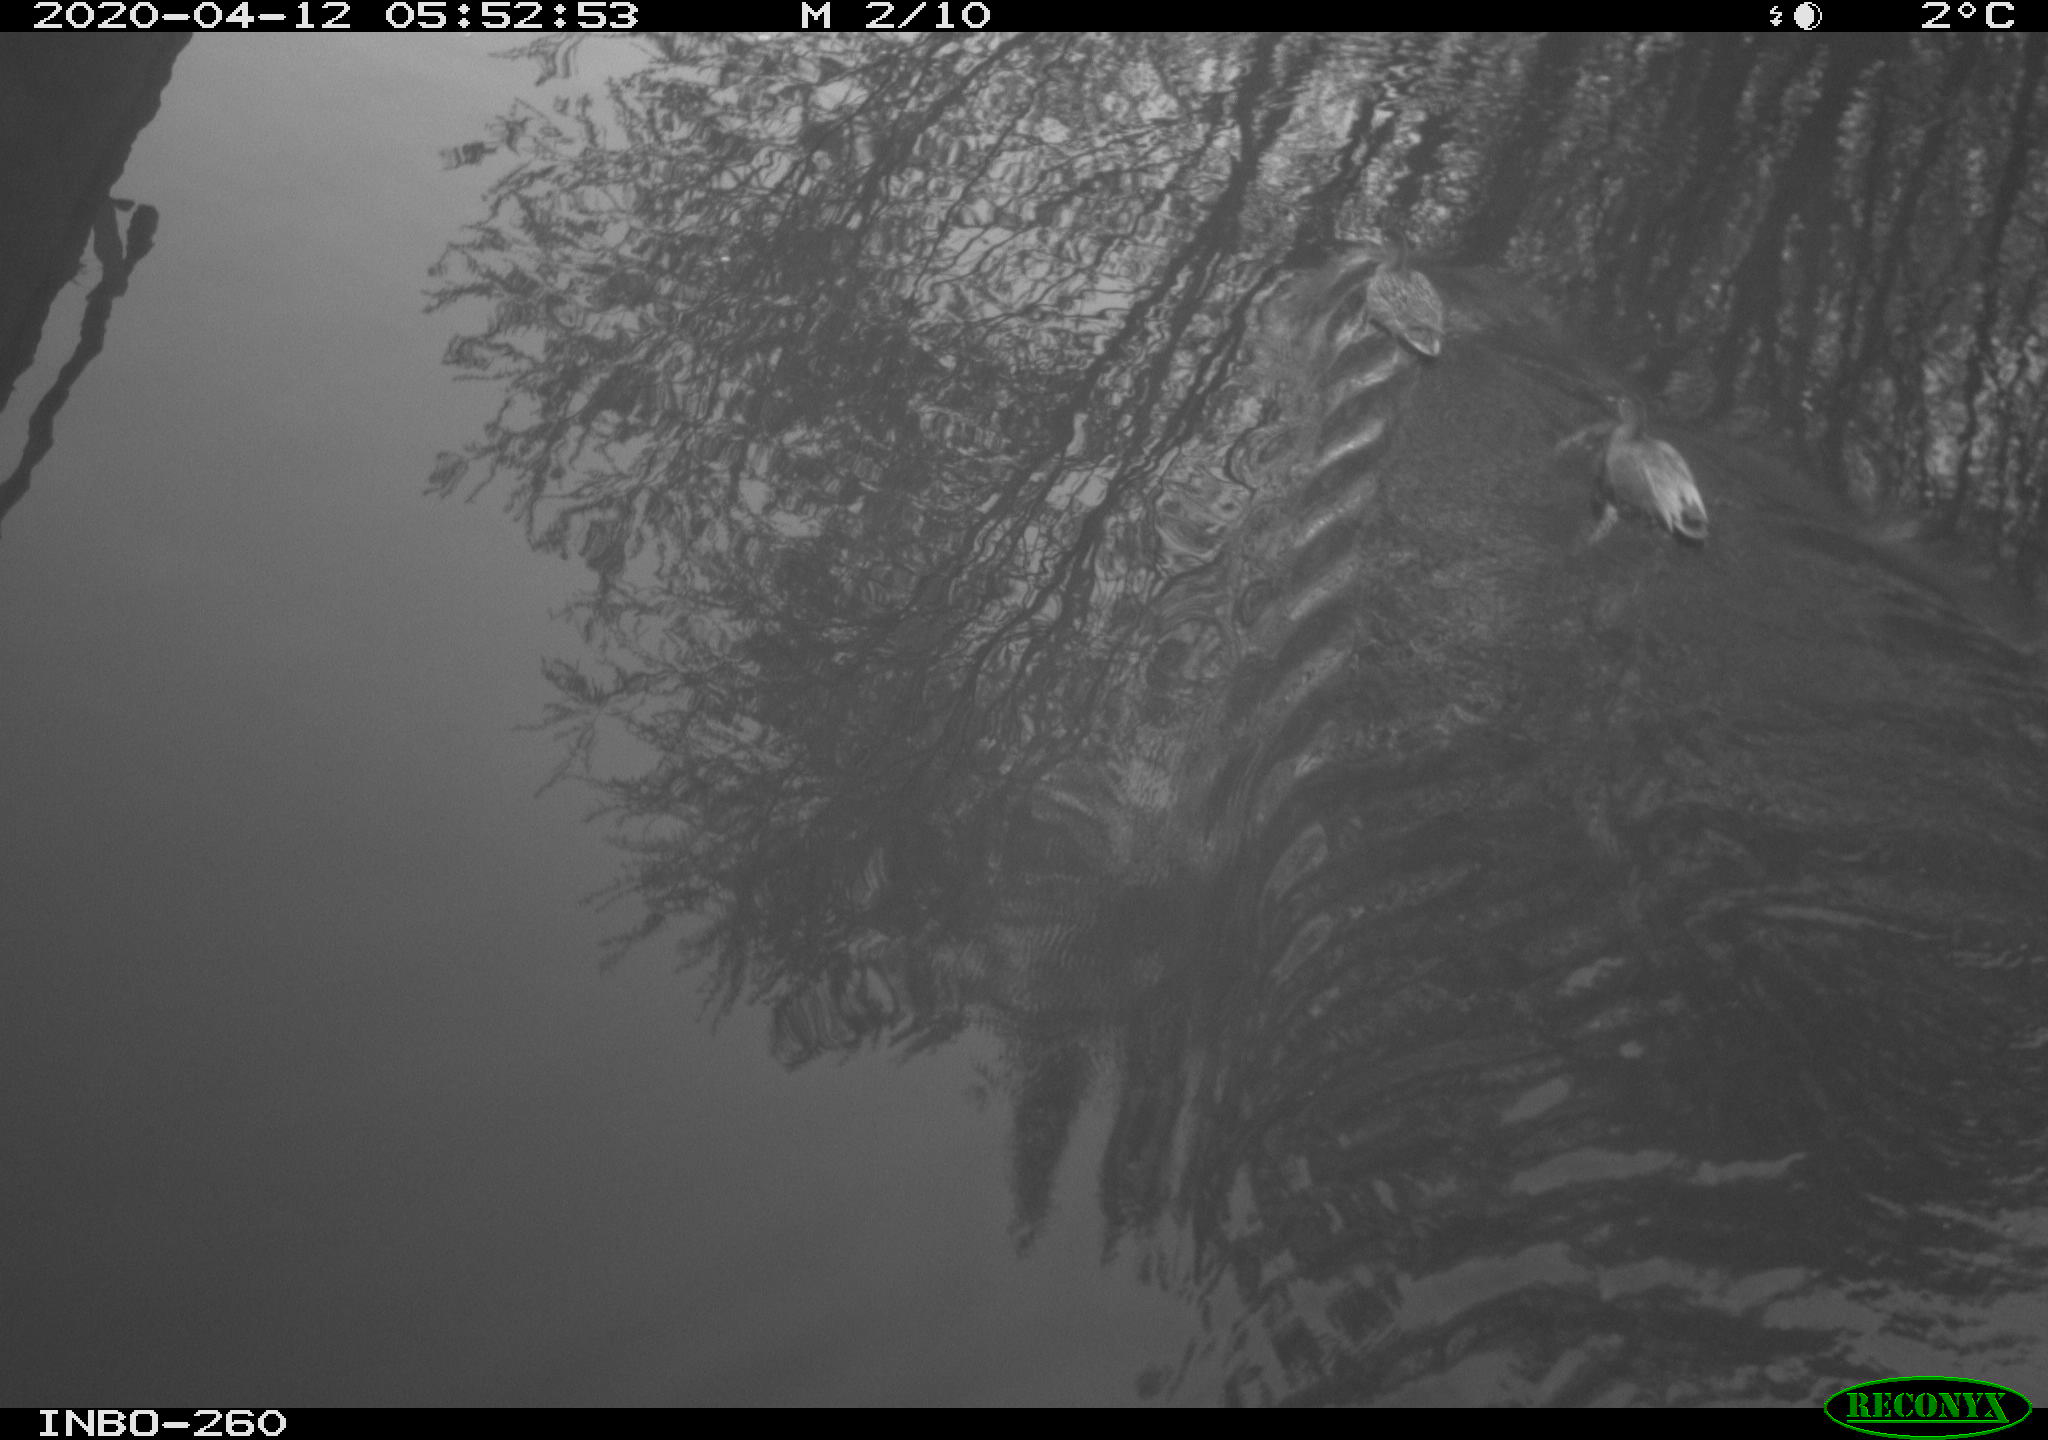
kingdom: Animalia
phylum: Chordata
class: Aves
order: Anseriformes
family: Anatidae
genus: Anas
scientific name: Anas platyrhynchos
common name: Mallard
